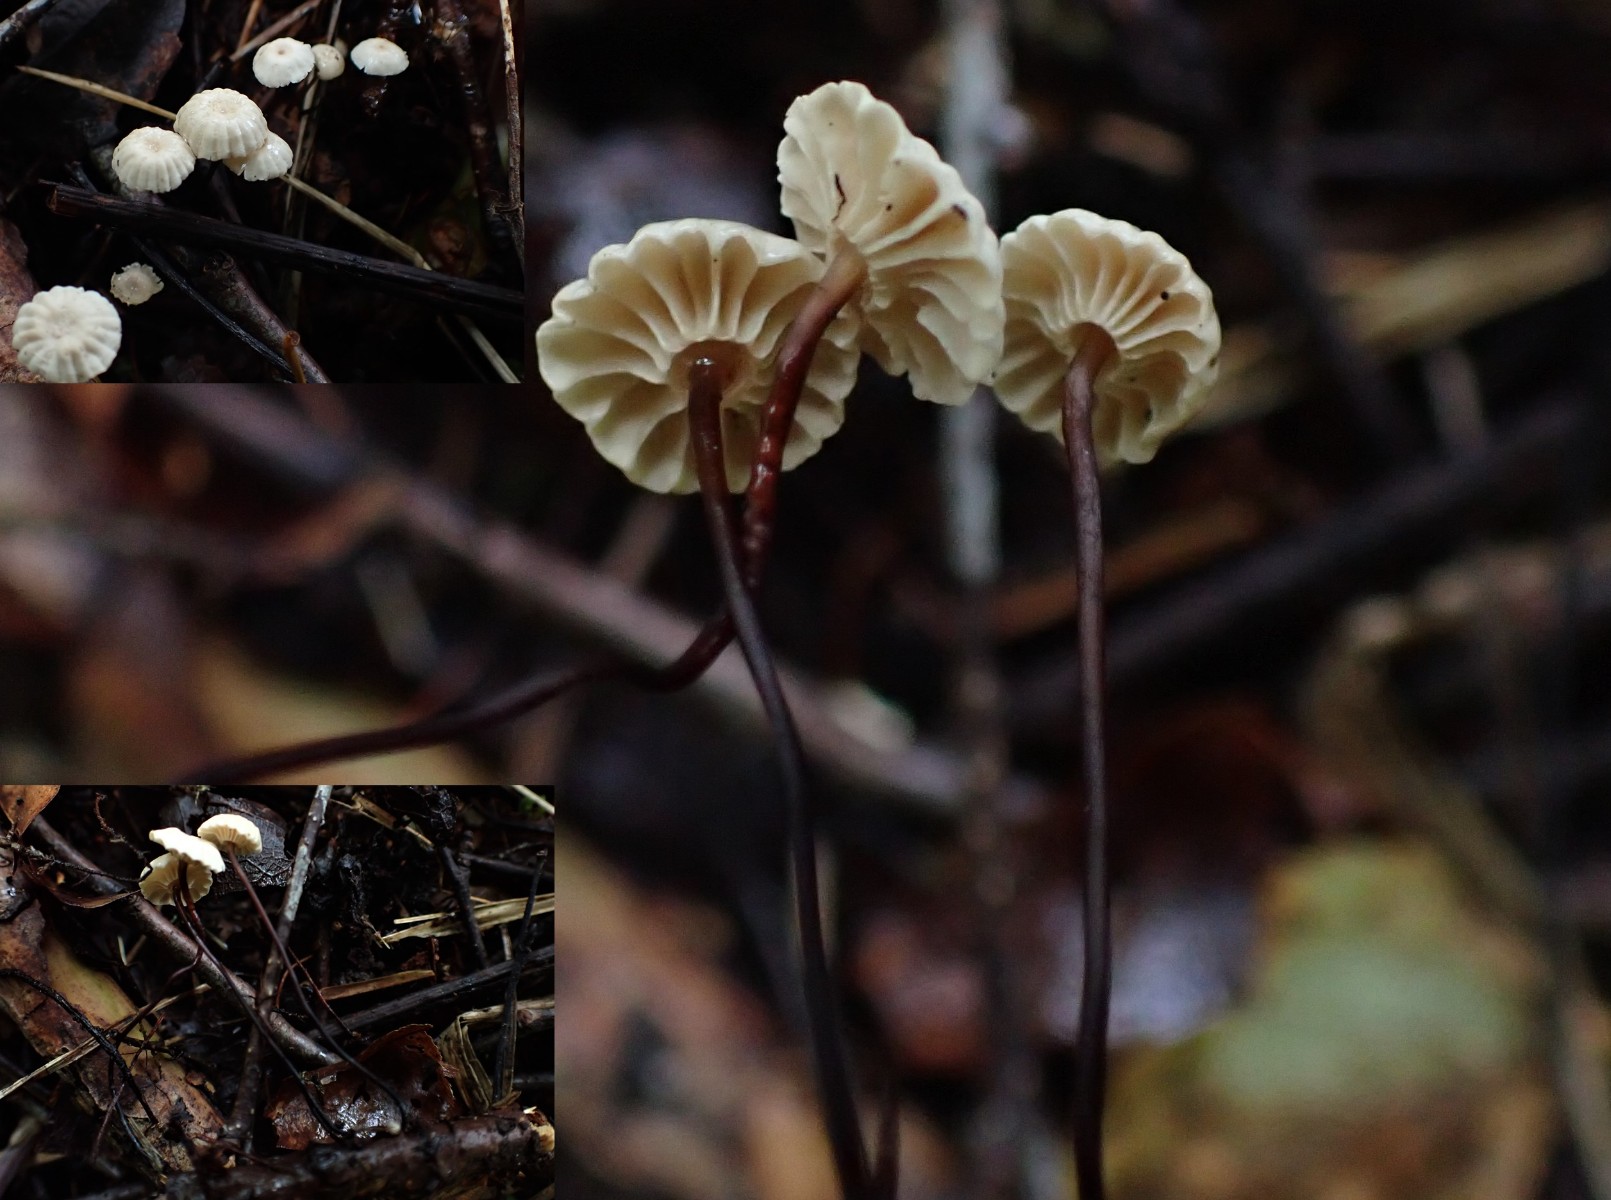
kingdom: Fungi
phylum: Basidiomycota
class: Agaricomycetes
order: Agaricales
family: Marasmiaceae
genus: Marasmius
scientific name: Marasmius rotula
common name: hjul-bruskhat
